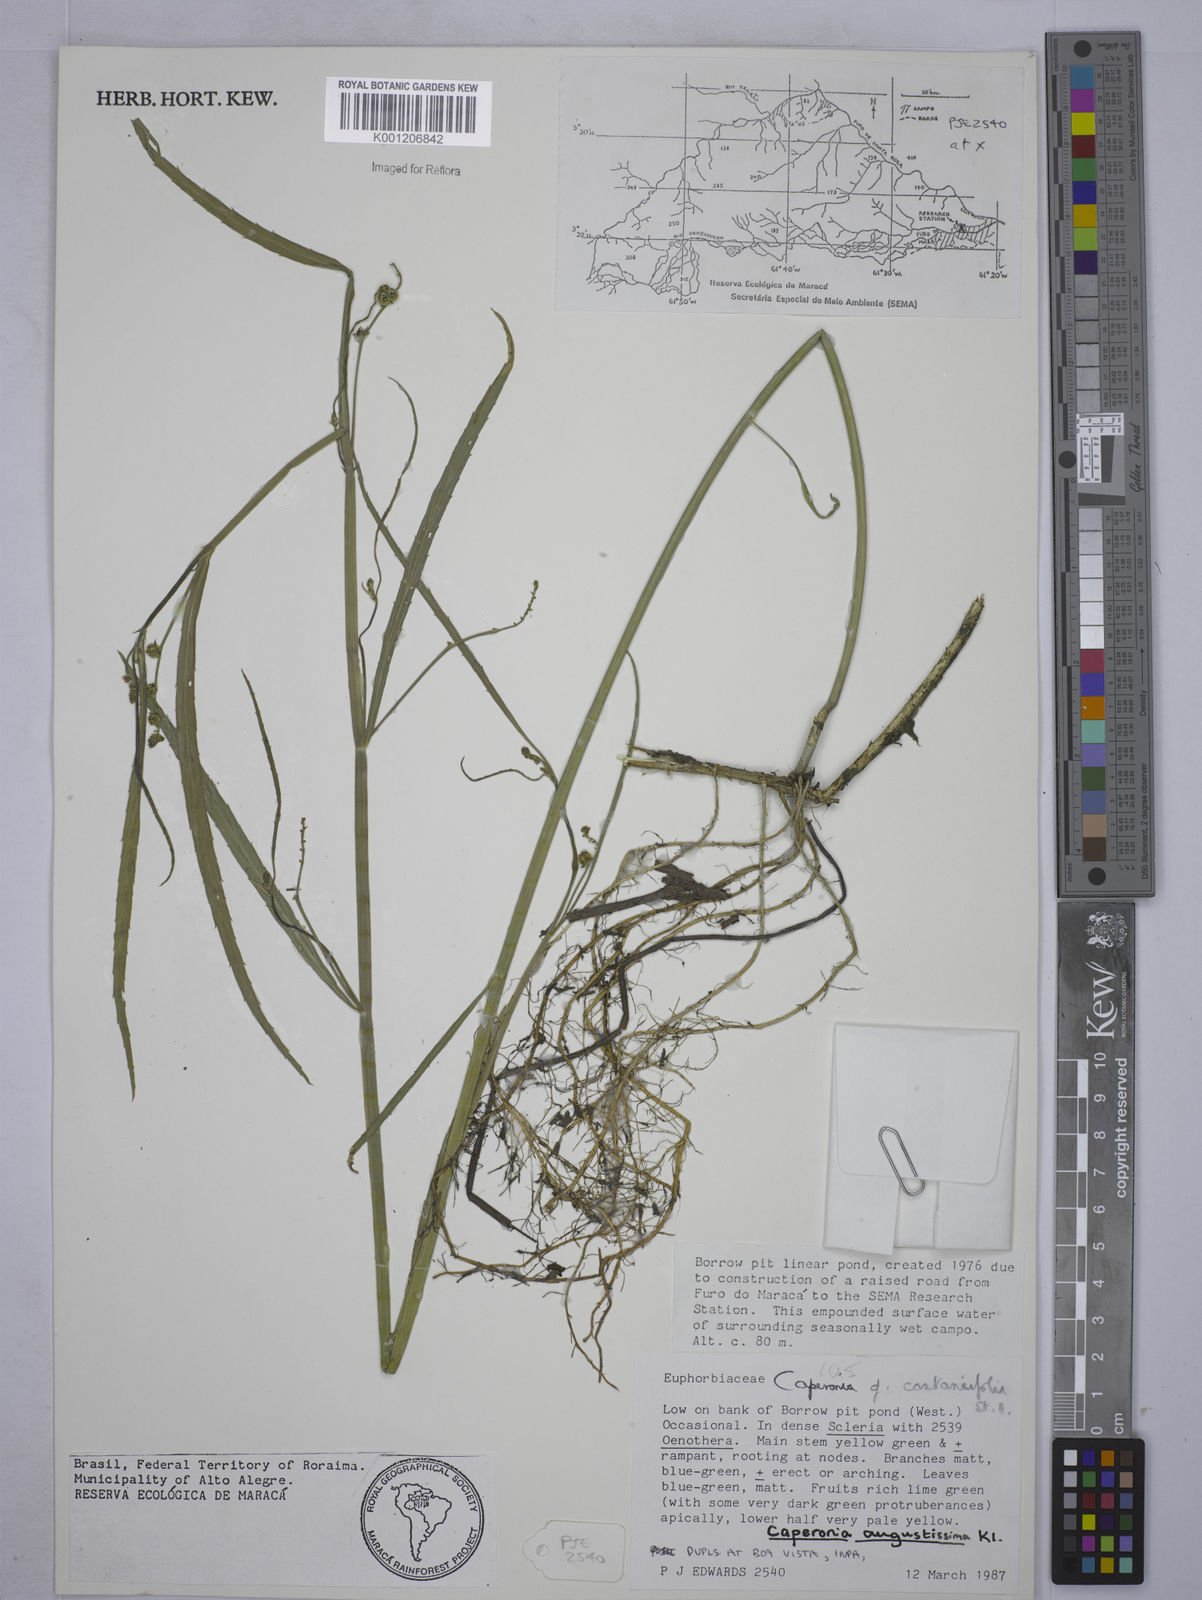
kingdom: Plantae
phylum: Tracheophyta
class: Magnoliopsida
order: Malpighiales
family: Euphorbiaceae
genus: Caperonia
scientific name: Caperonia castaneifolia
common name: Chestnutleaf false croton
